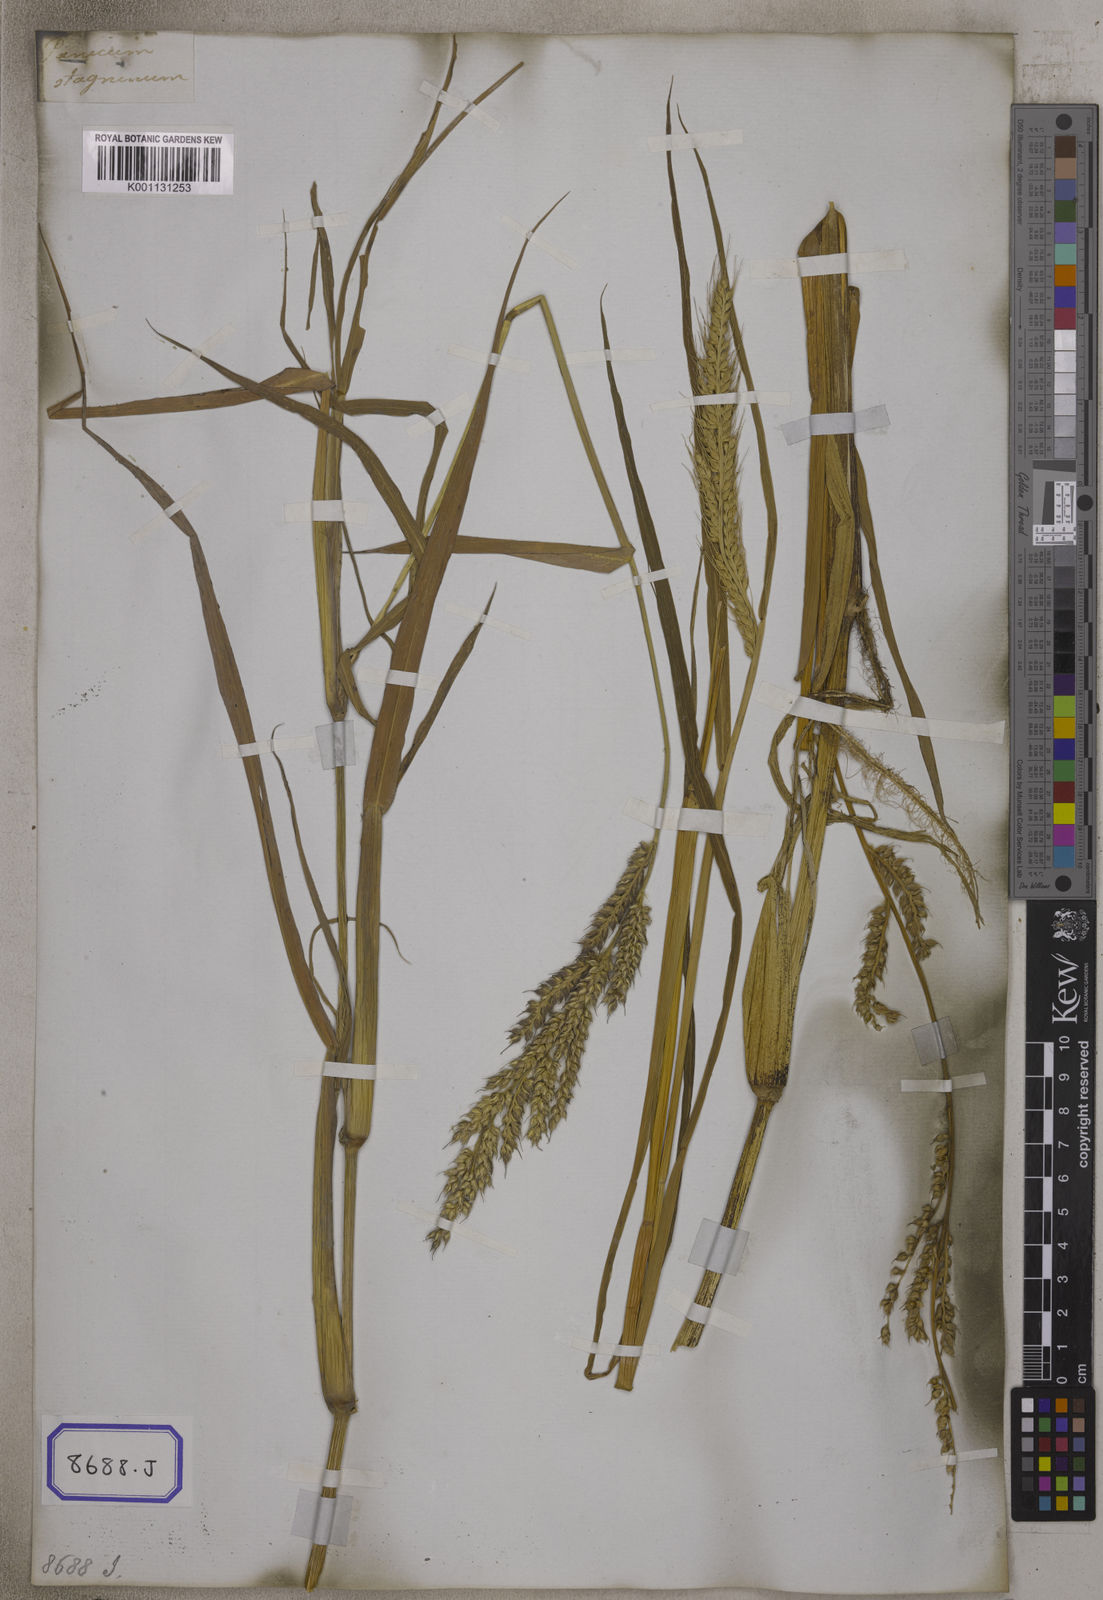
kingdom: Plantae
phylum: Tracheophyta
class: Liliopsida
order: Poales
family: Poaceae
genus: Echinochloa
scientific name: Echinochloa stagnina
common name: Burgu grass
